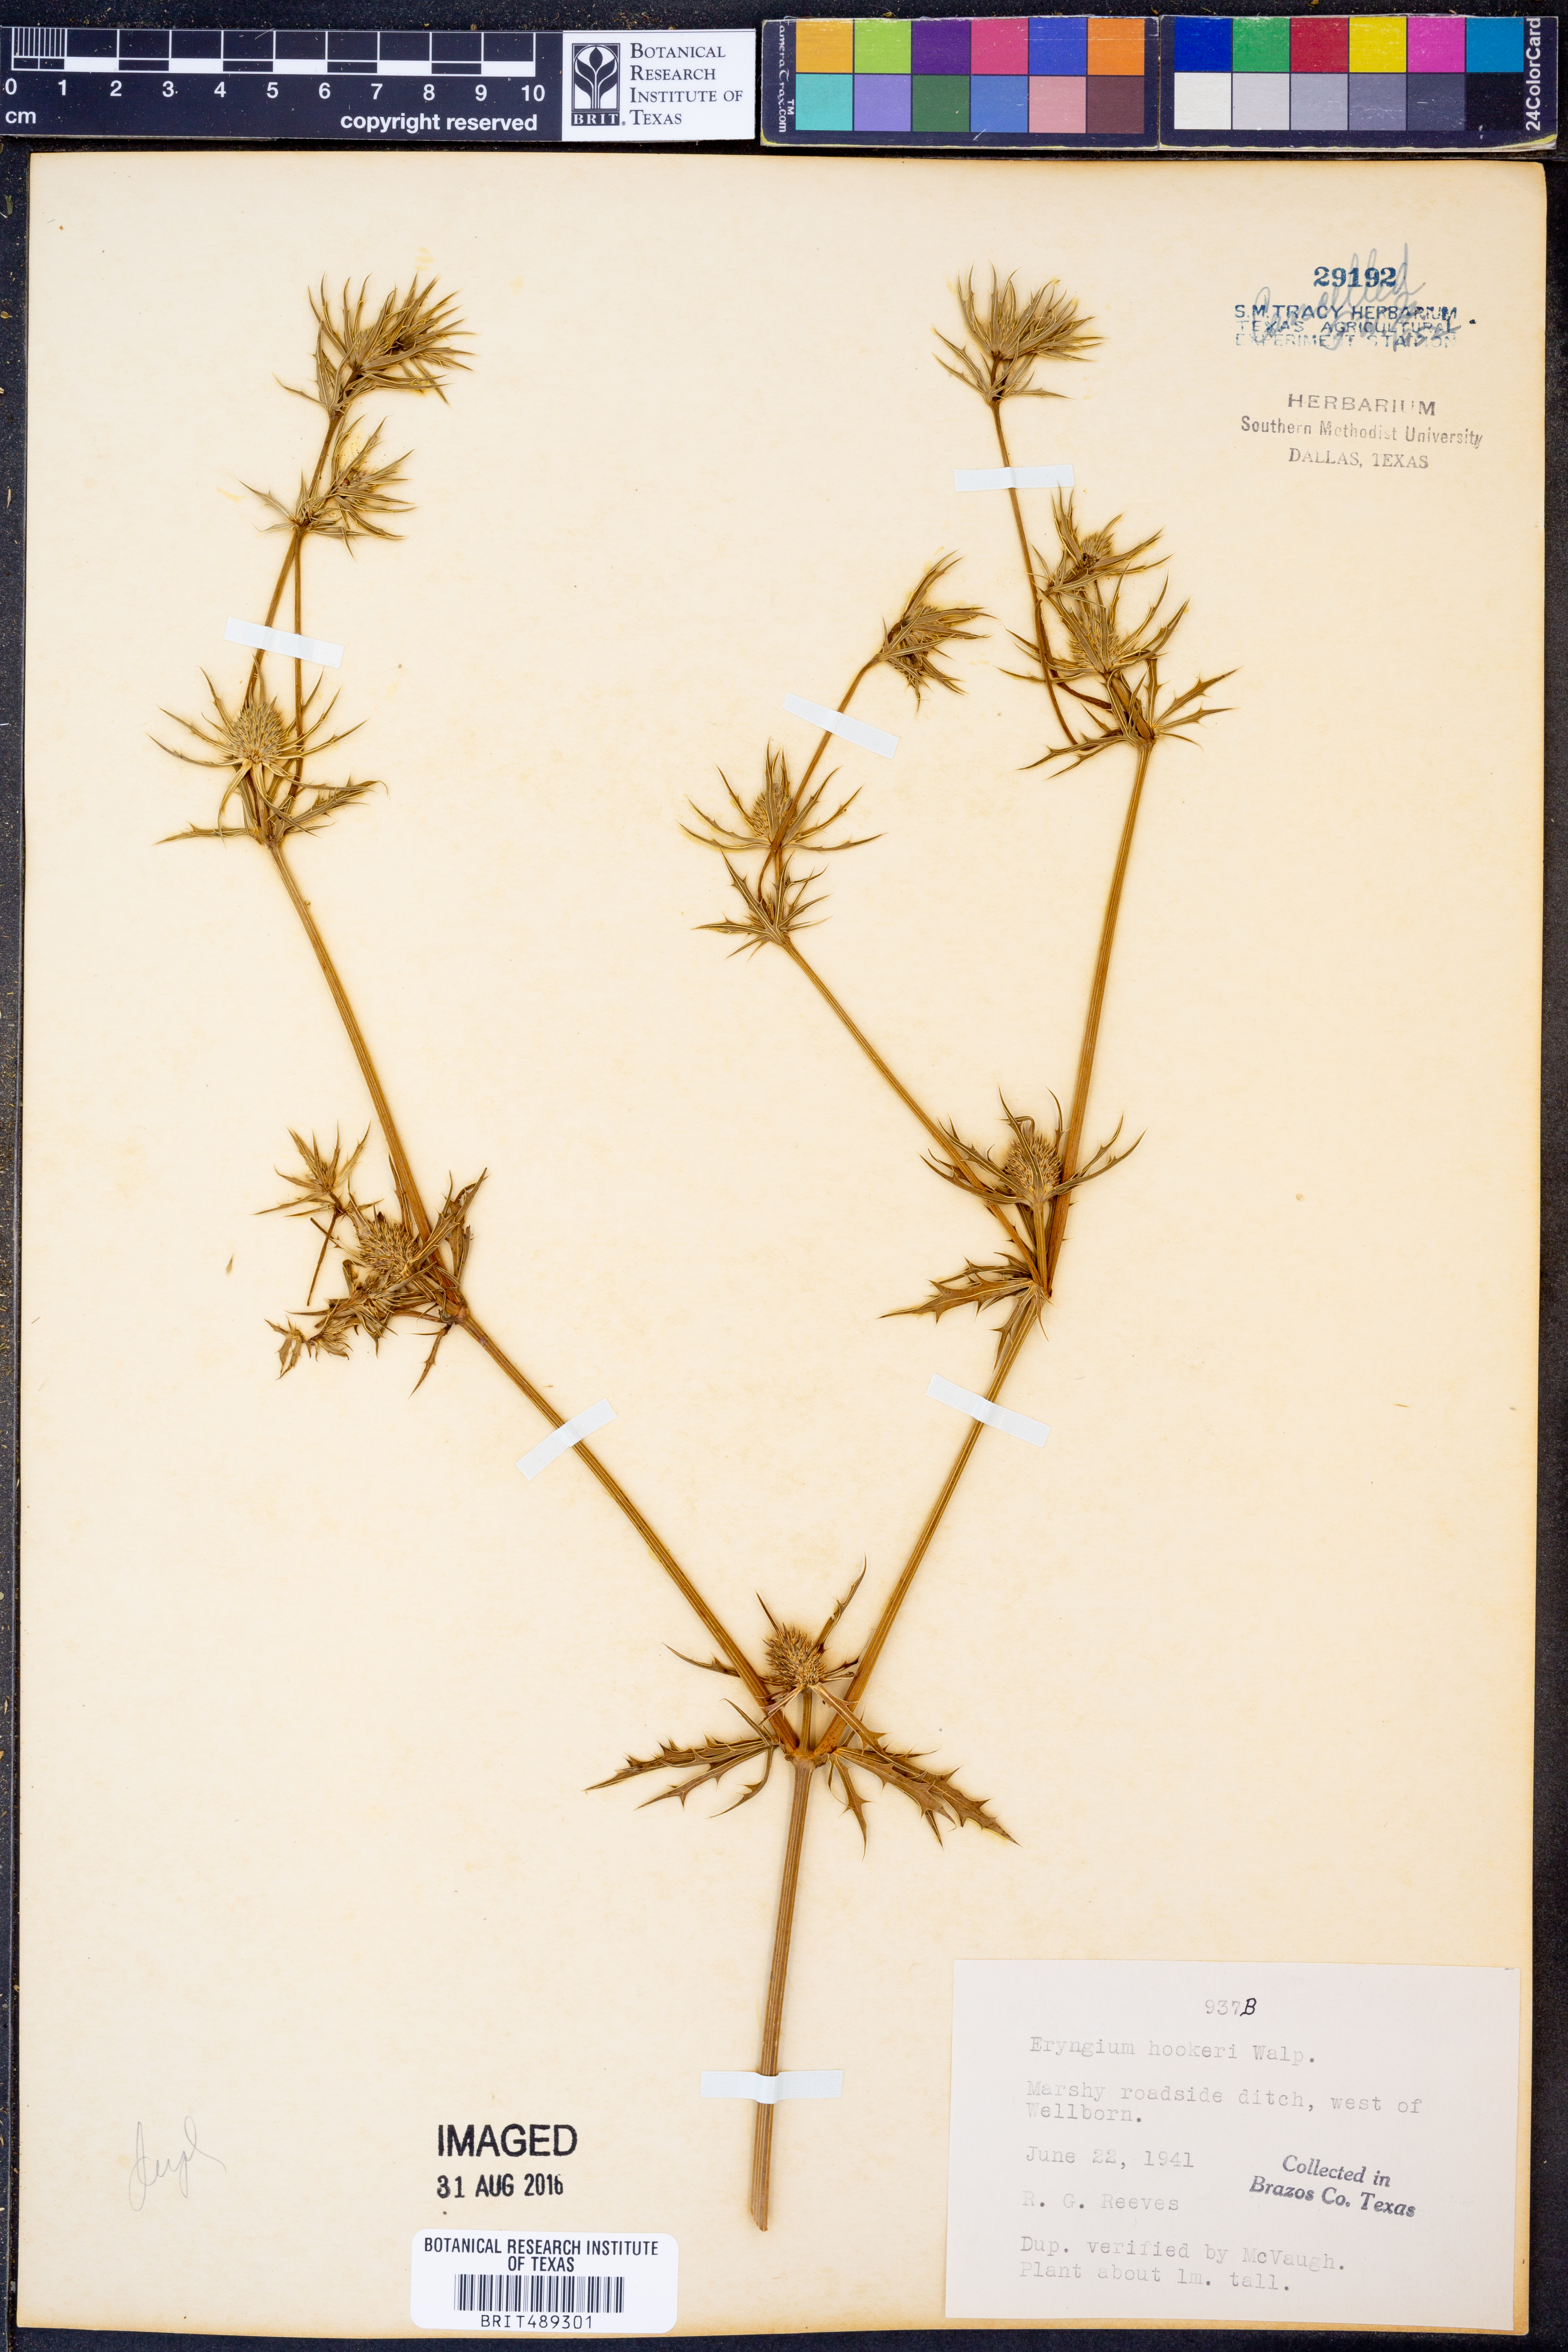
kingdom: Plantae
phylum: Tracheophyta
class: Magnoliopsida
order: Apiales
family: Apiaceae
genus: Eryngium
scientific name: Eryngium hookeri
